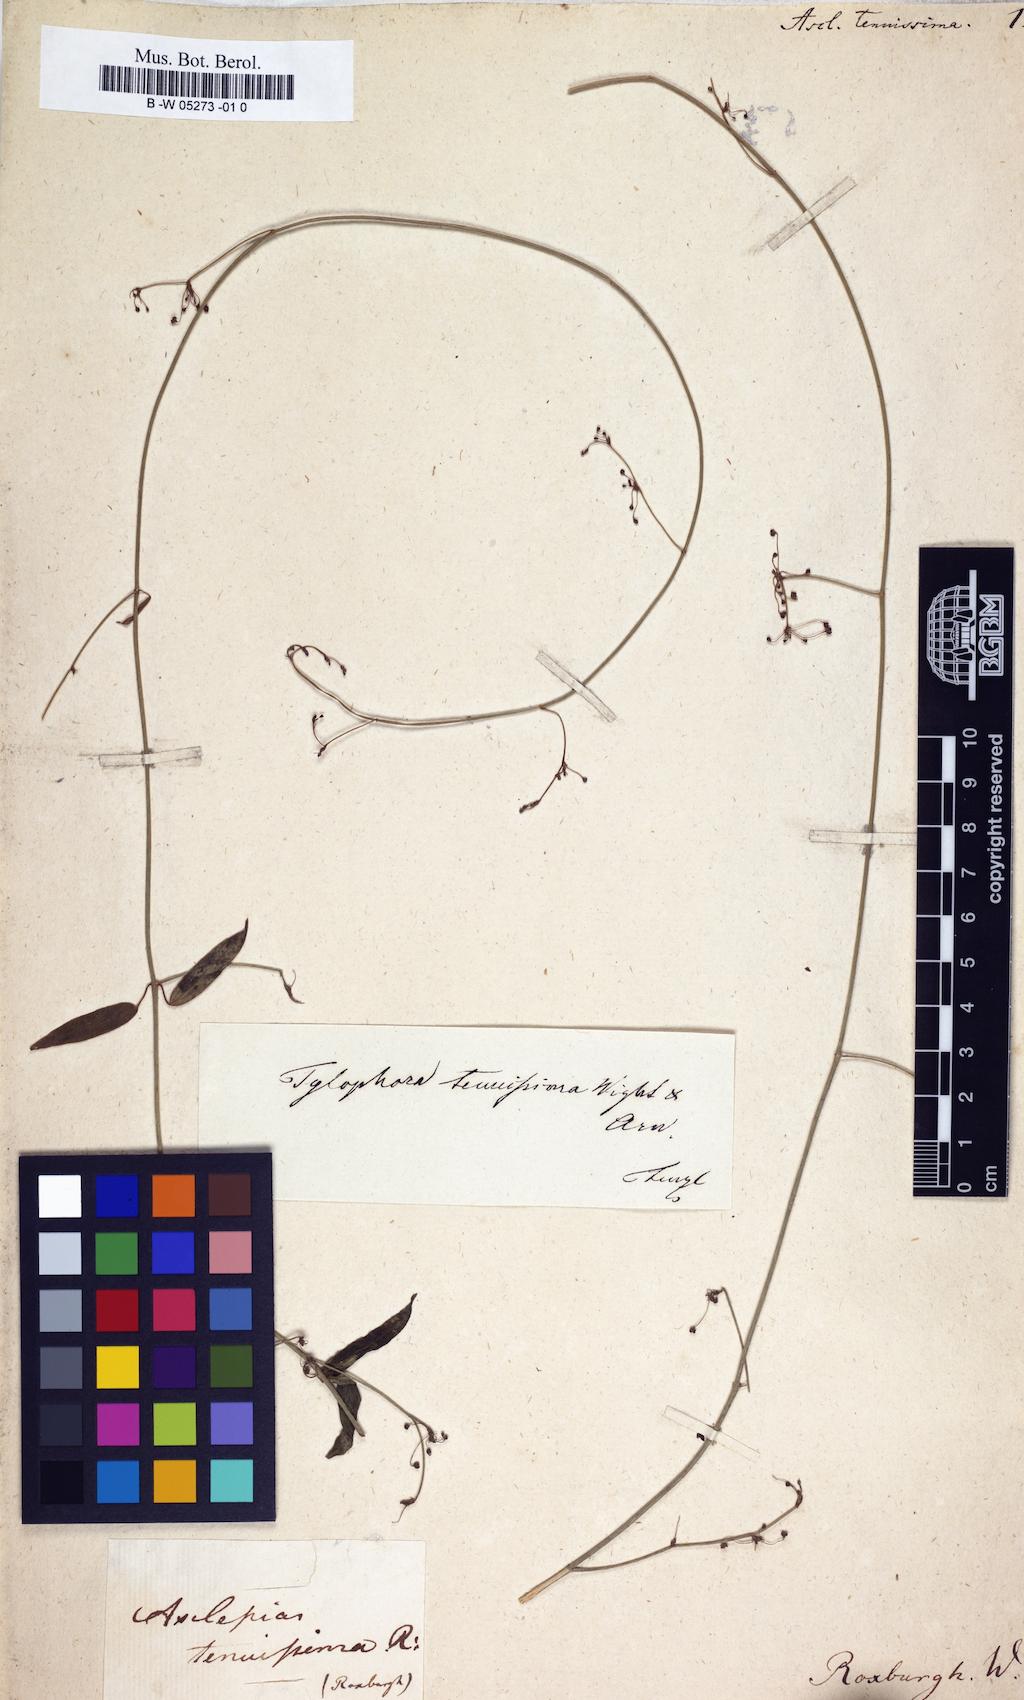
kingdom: Plantae
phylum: Tracheophyta
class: Magnoliopsida
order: Gentianales
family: Apocynaceae
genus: Vincetoxicum
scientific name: Vincetoxicum flexuosum
